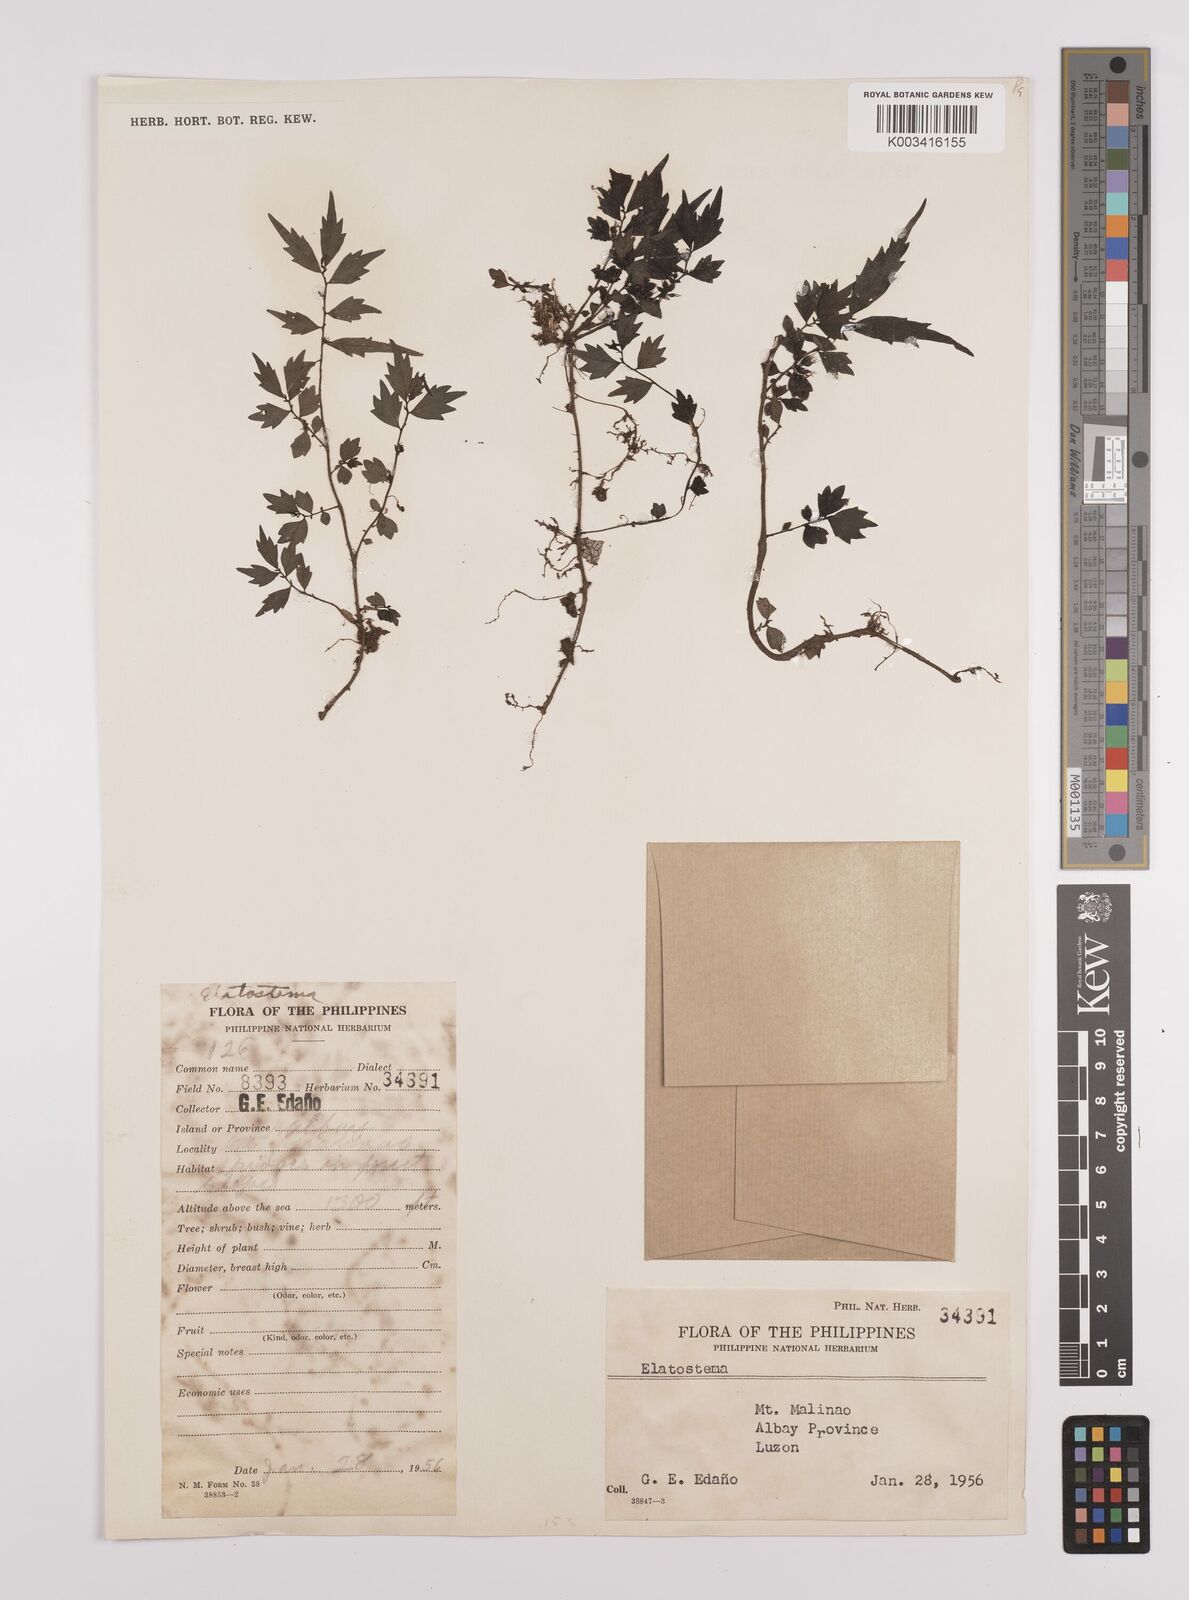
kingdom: Plantae
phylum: Tracheophyta
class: Magnoliopsida
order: Rosales
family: Urticaceae
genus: Elatostema
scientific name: Elatostema
